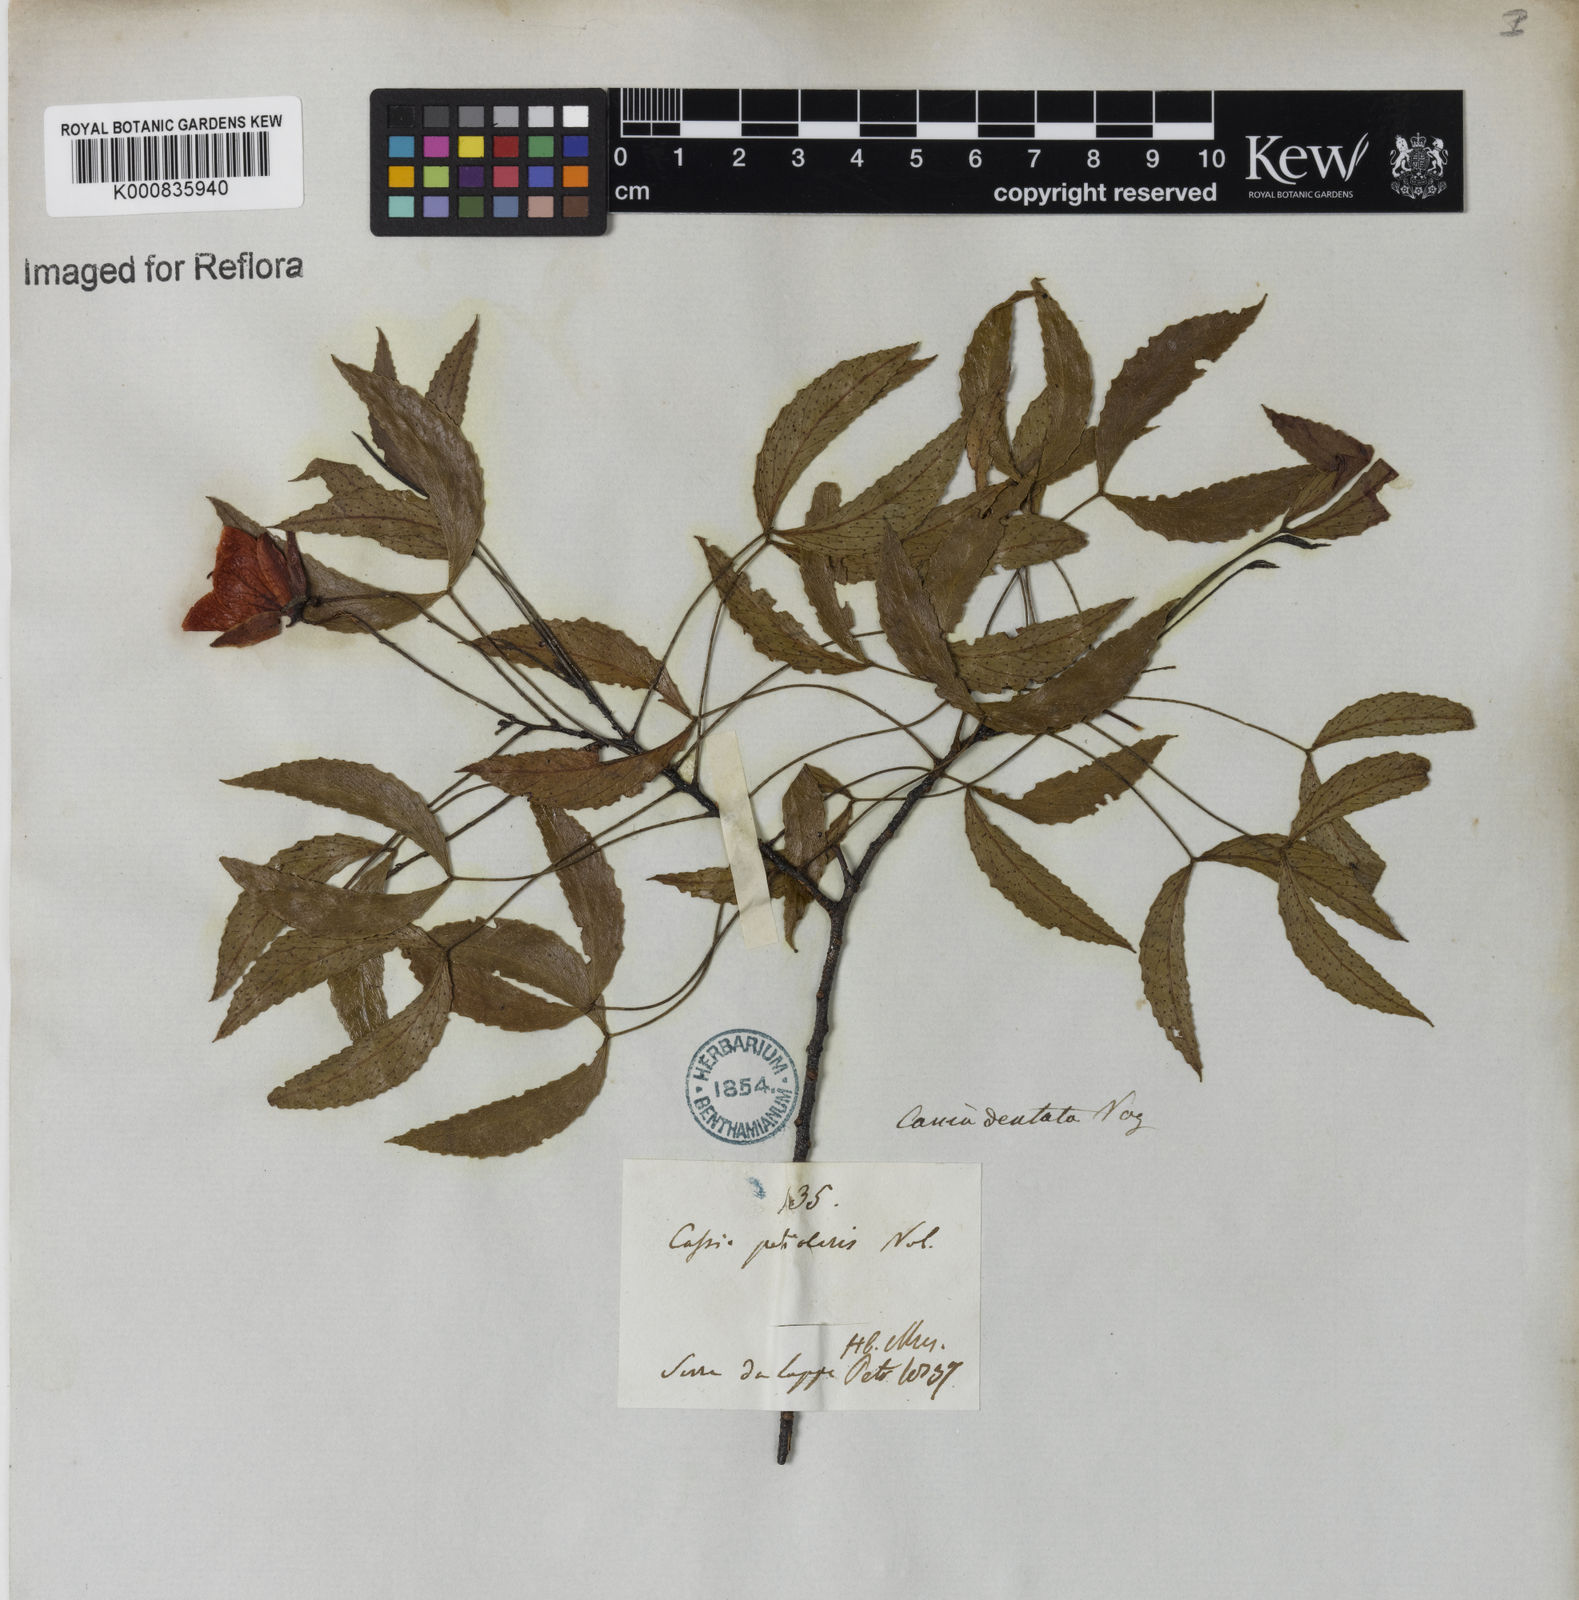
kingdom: Plantae
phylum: Tracheophyta
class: Magnoliopsida
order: Fabales
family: Fabaceae
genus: Chamaecrista
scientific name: Chamaecrista dentata
